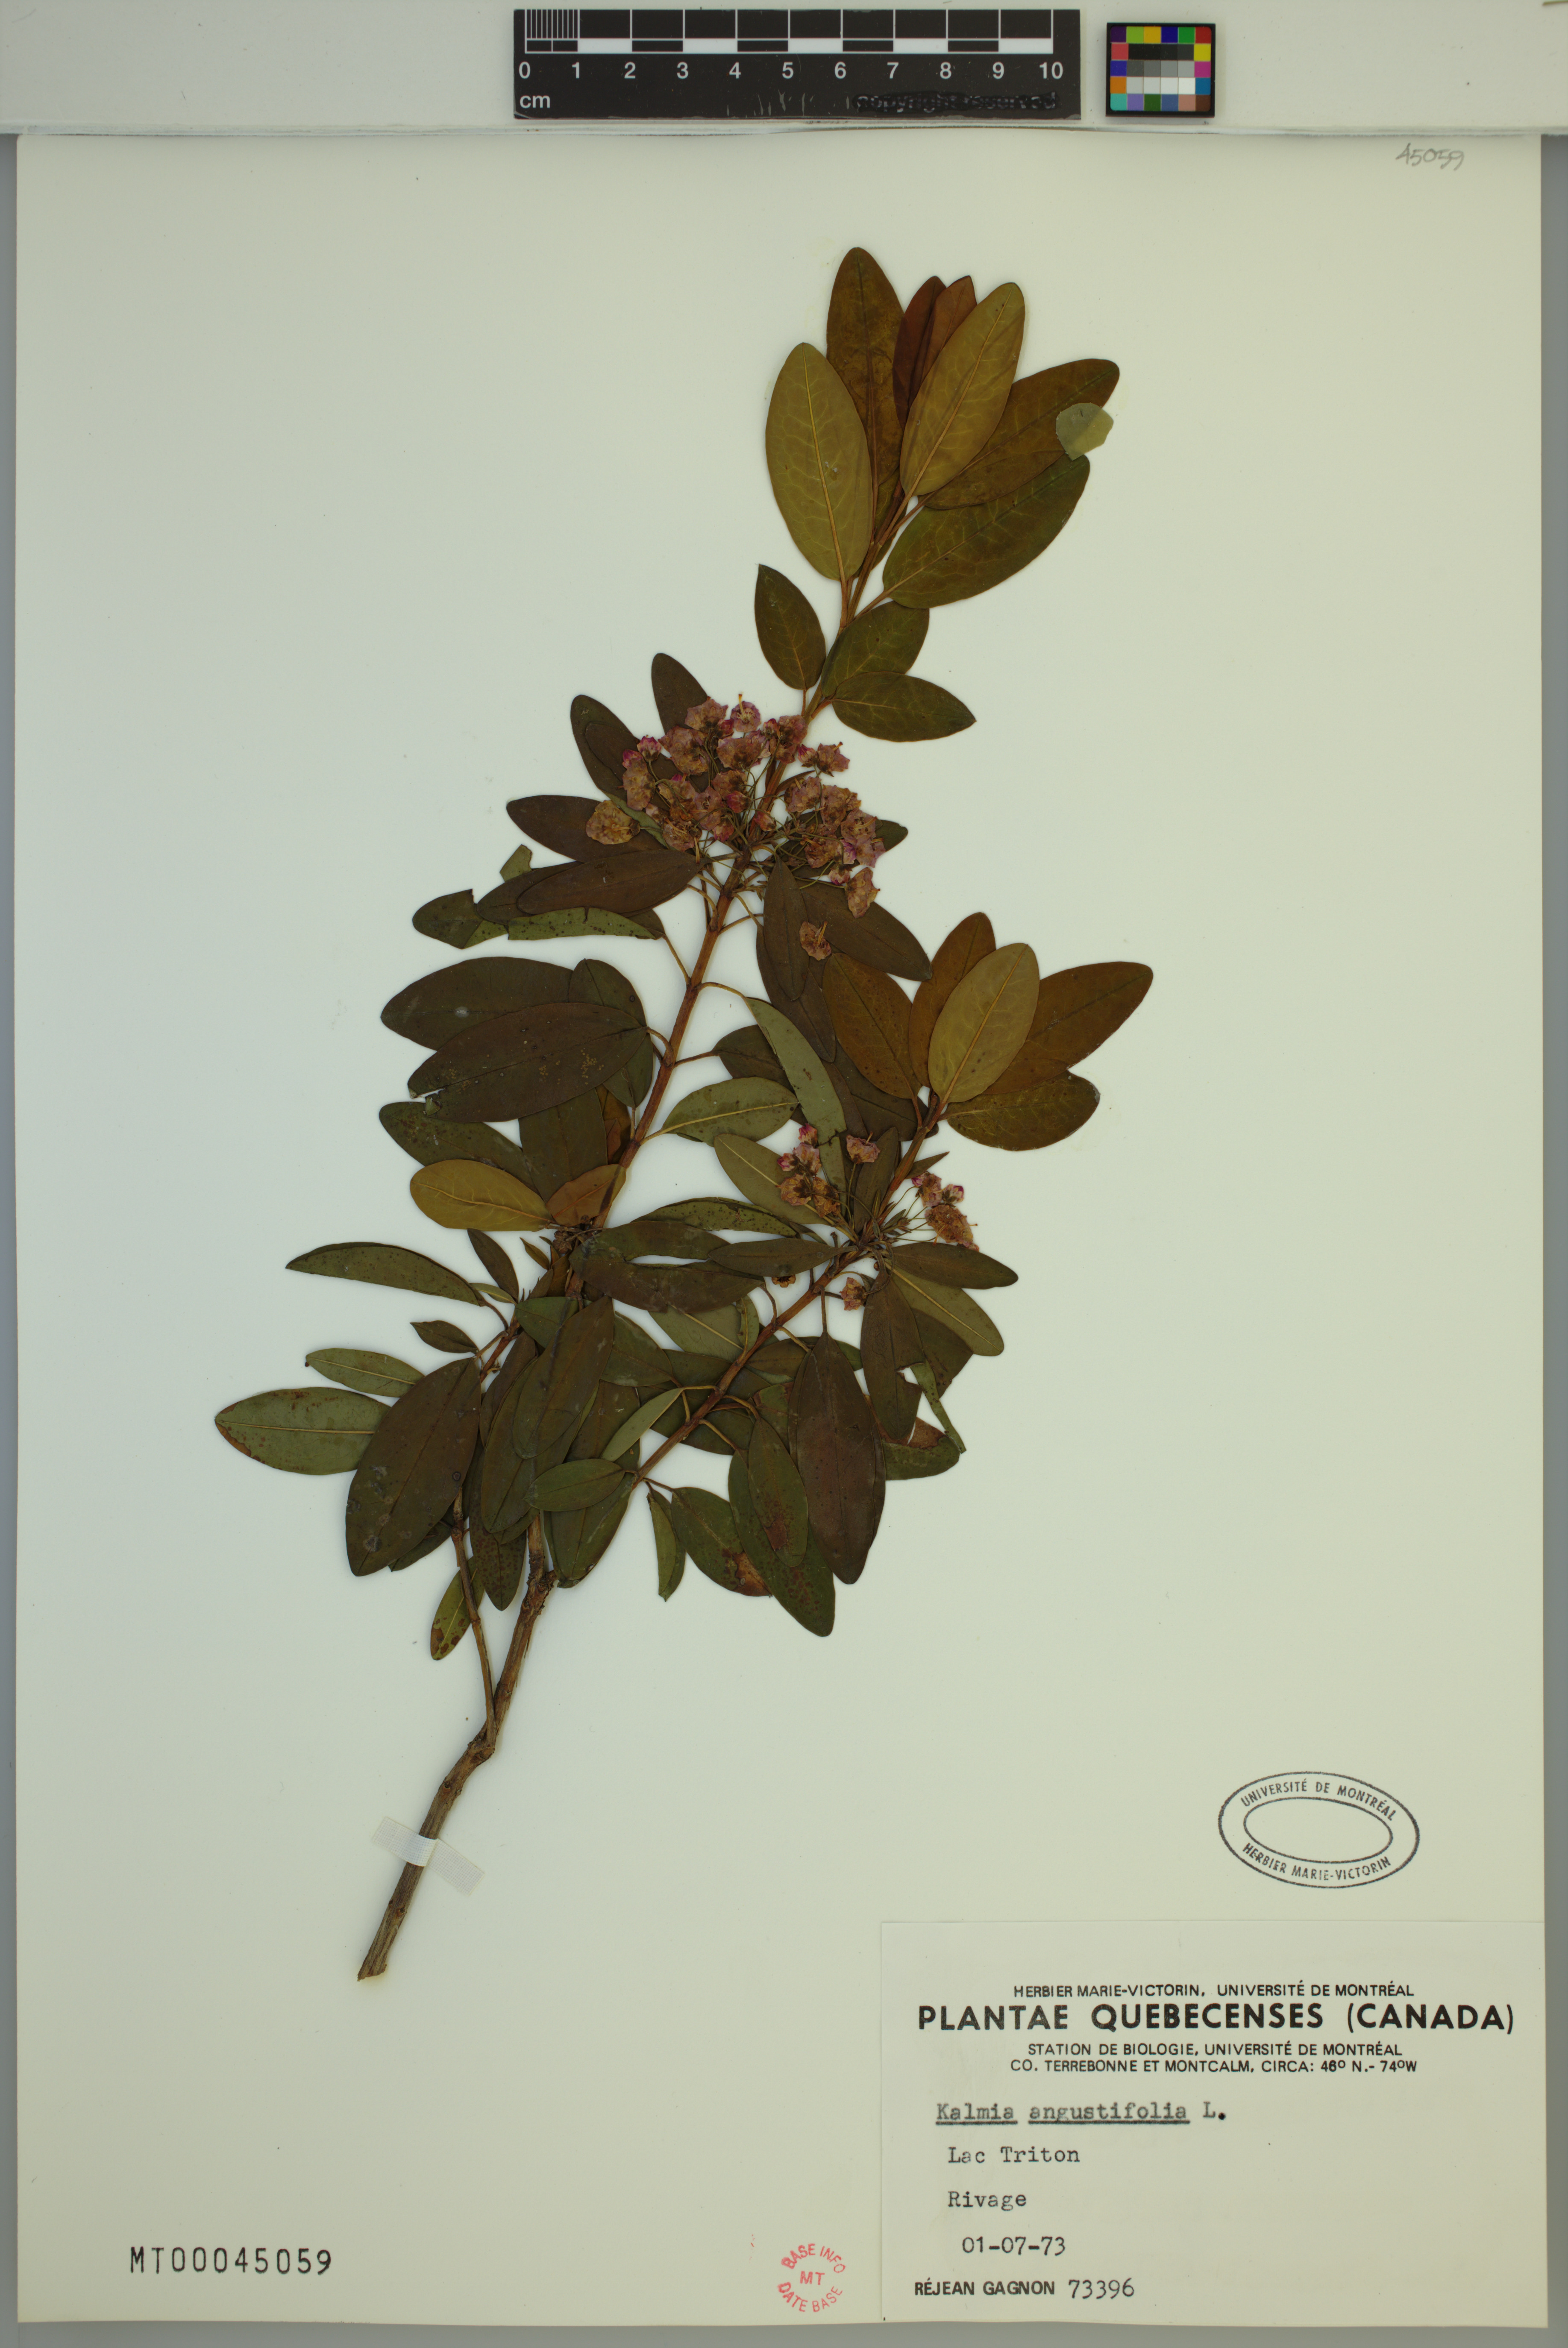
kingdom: Plantae
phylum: Tracheophyta
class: Magnoliopsida
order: Ericales
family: Ericaceae
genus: Kalmia
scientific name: Kalmia angustifolia
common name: Sheep-laurel
